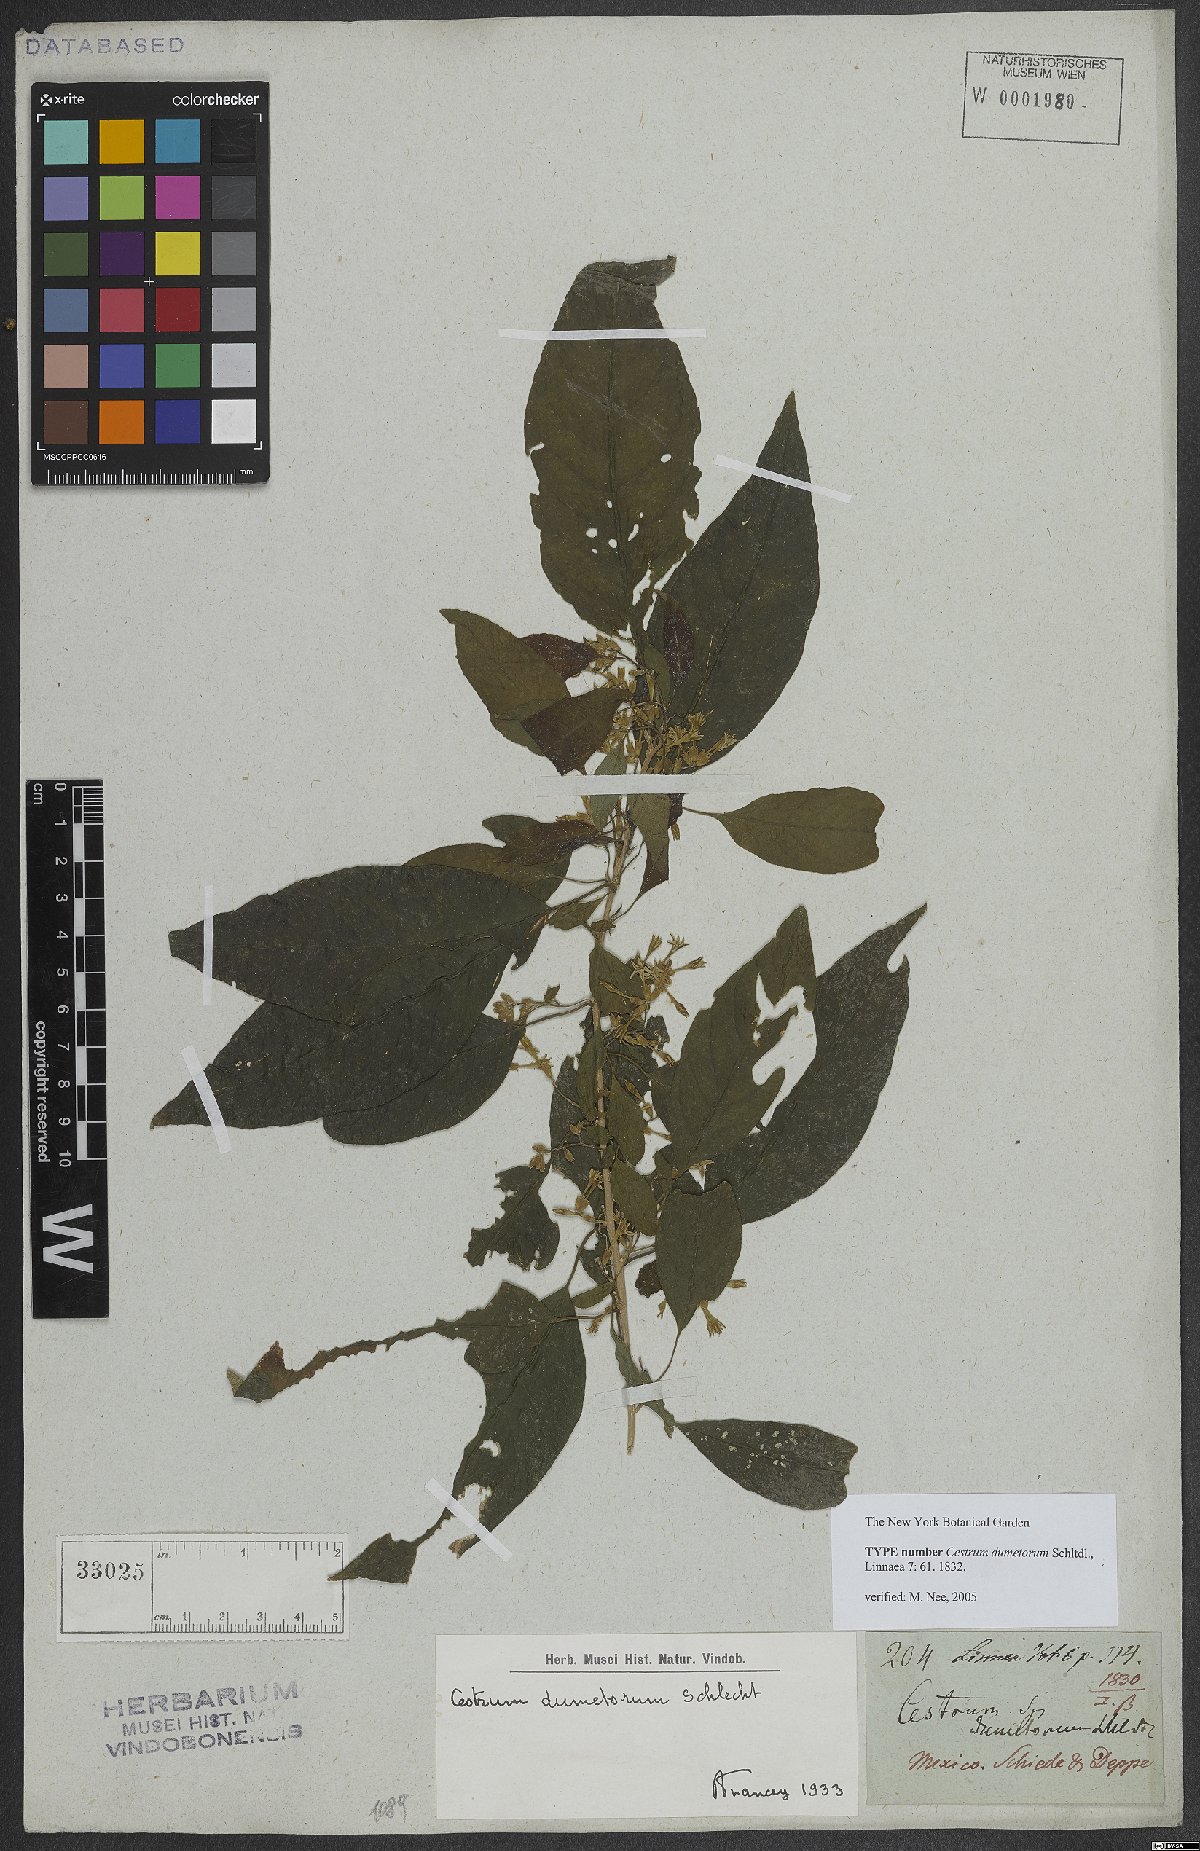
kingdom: Plantae
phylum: Tracheophyta
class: Magnoliopsida
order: Solanales
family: Solanaceae
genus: Cestrum
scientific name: Cestrum dumetorum
